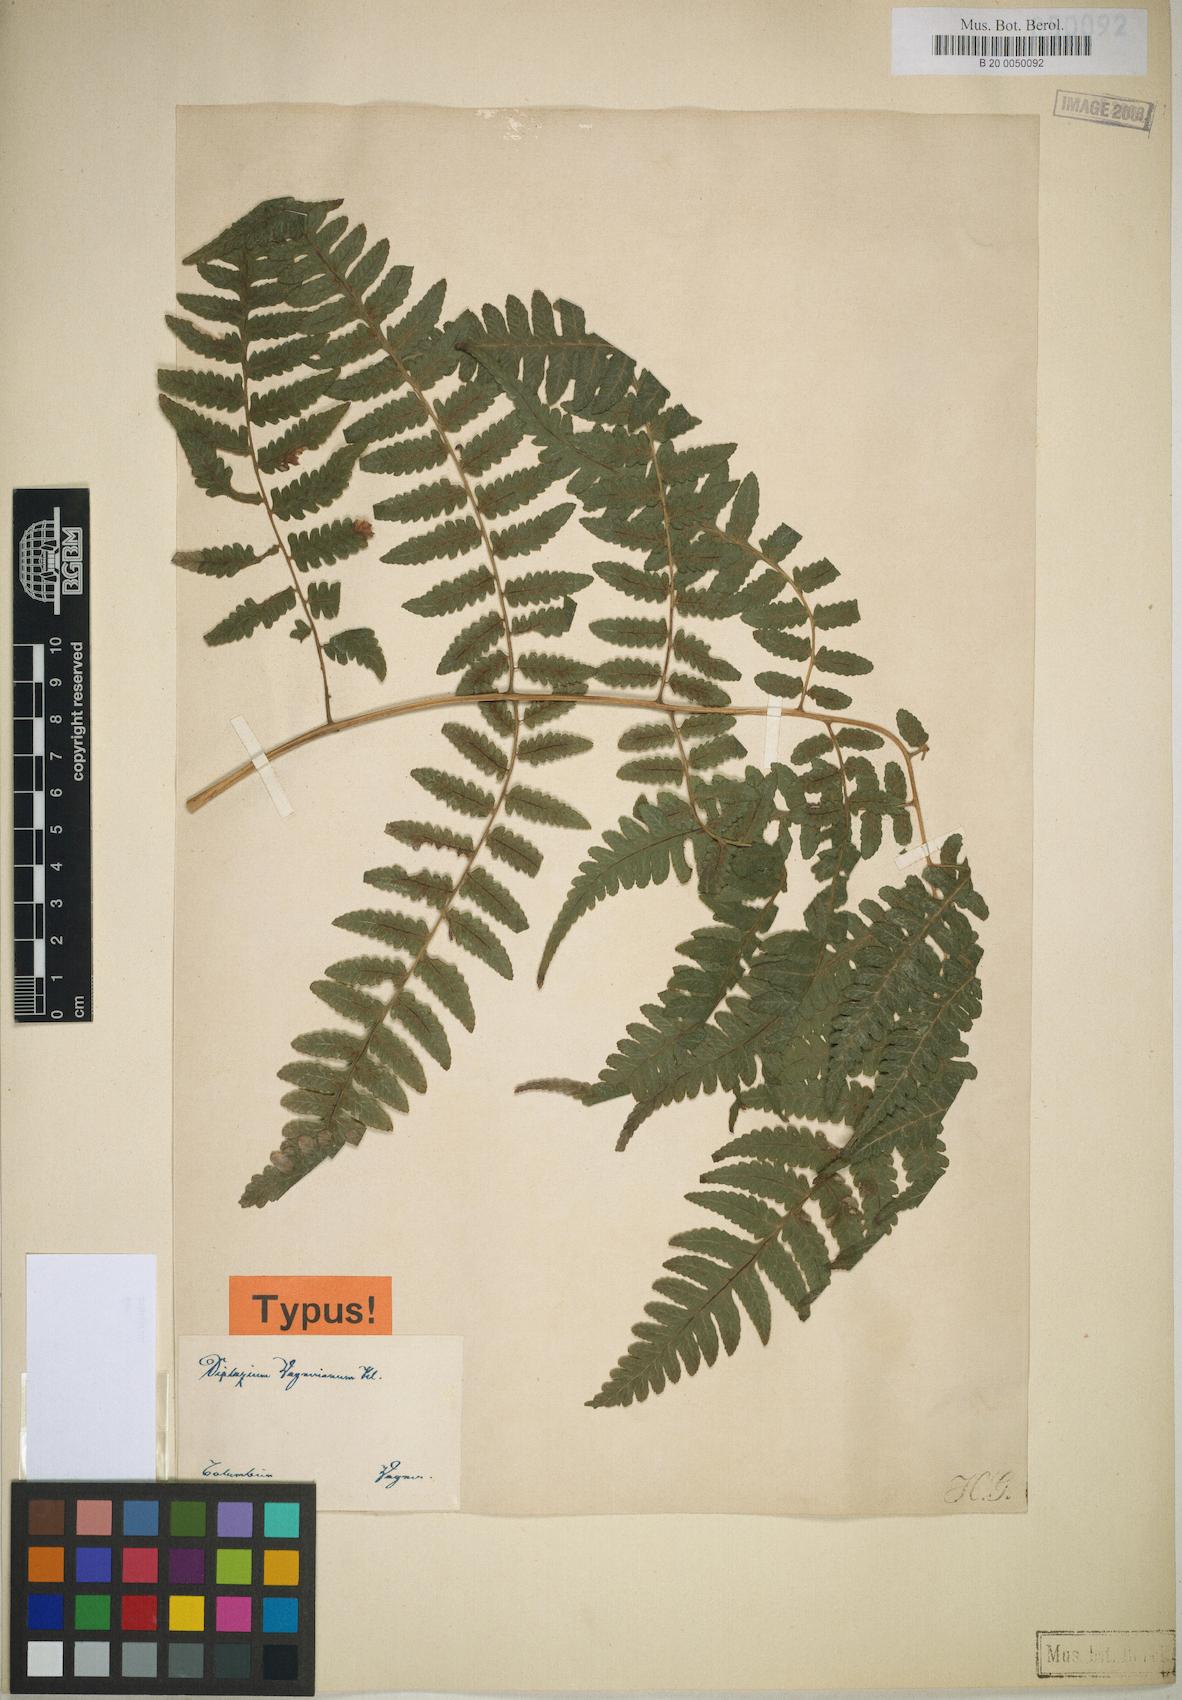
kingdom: Plantae
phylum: Tracheophyta
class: Polypodiopsida
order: Polypodiales
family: Athyriaceae
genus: Diplazium
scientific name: Diplazium hians
